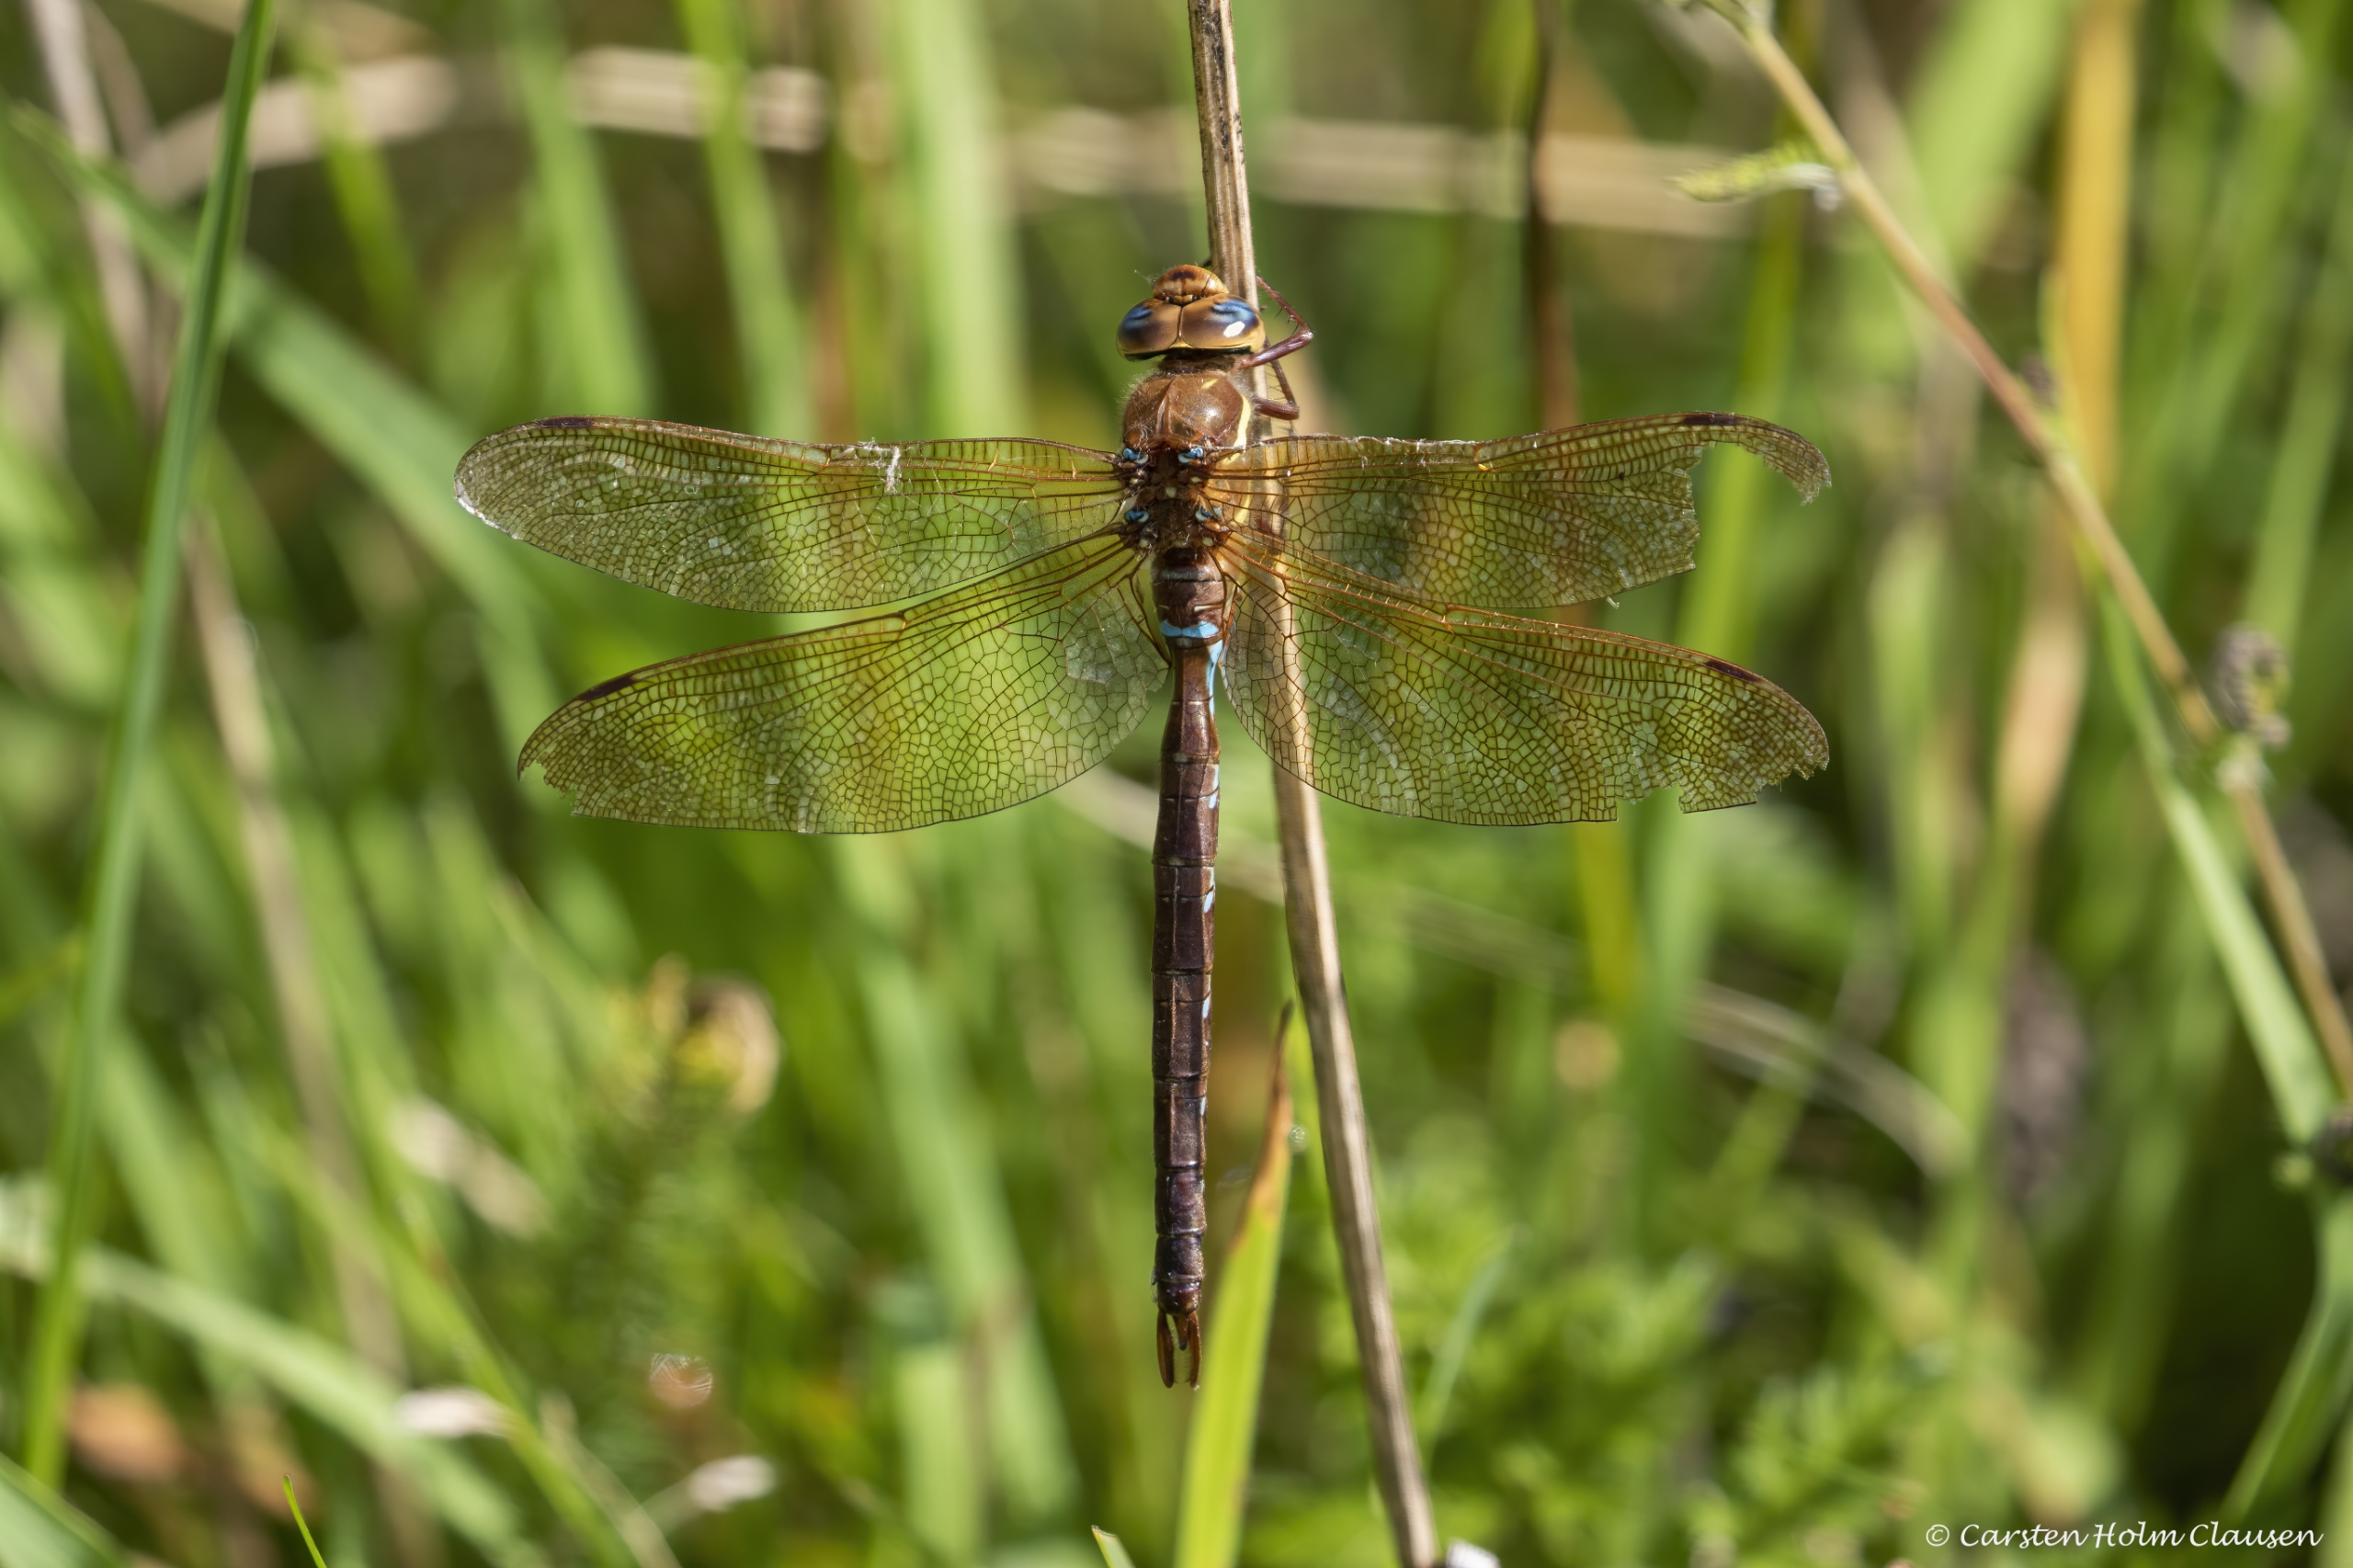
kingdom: Animalia
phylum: Arthropoda
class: Insecta
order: Odonata
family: Aeshnidae
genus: Aeshna
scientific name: Aeshna grandis
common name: Brun mosaikguldsmed
